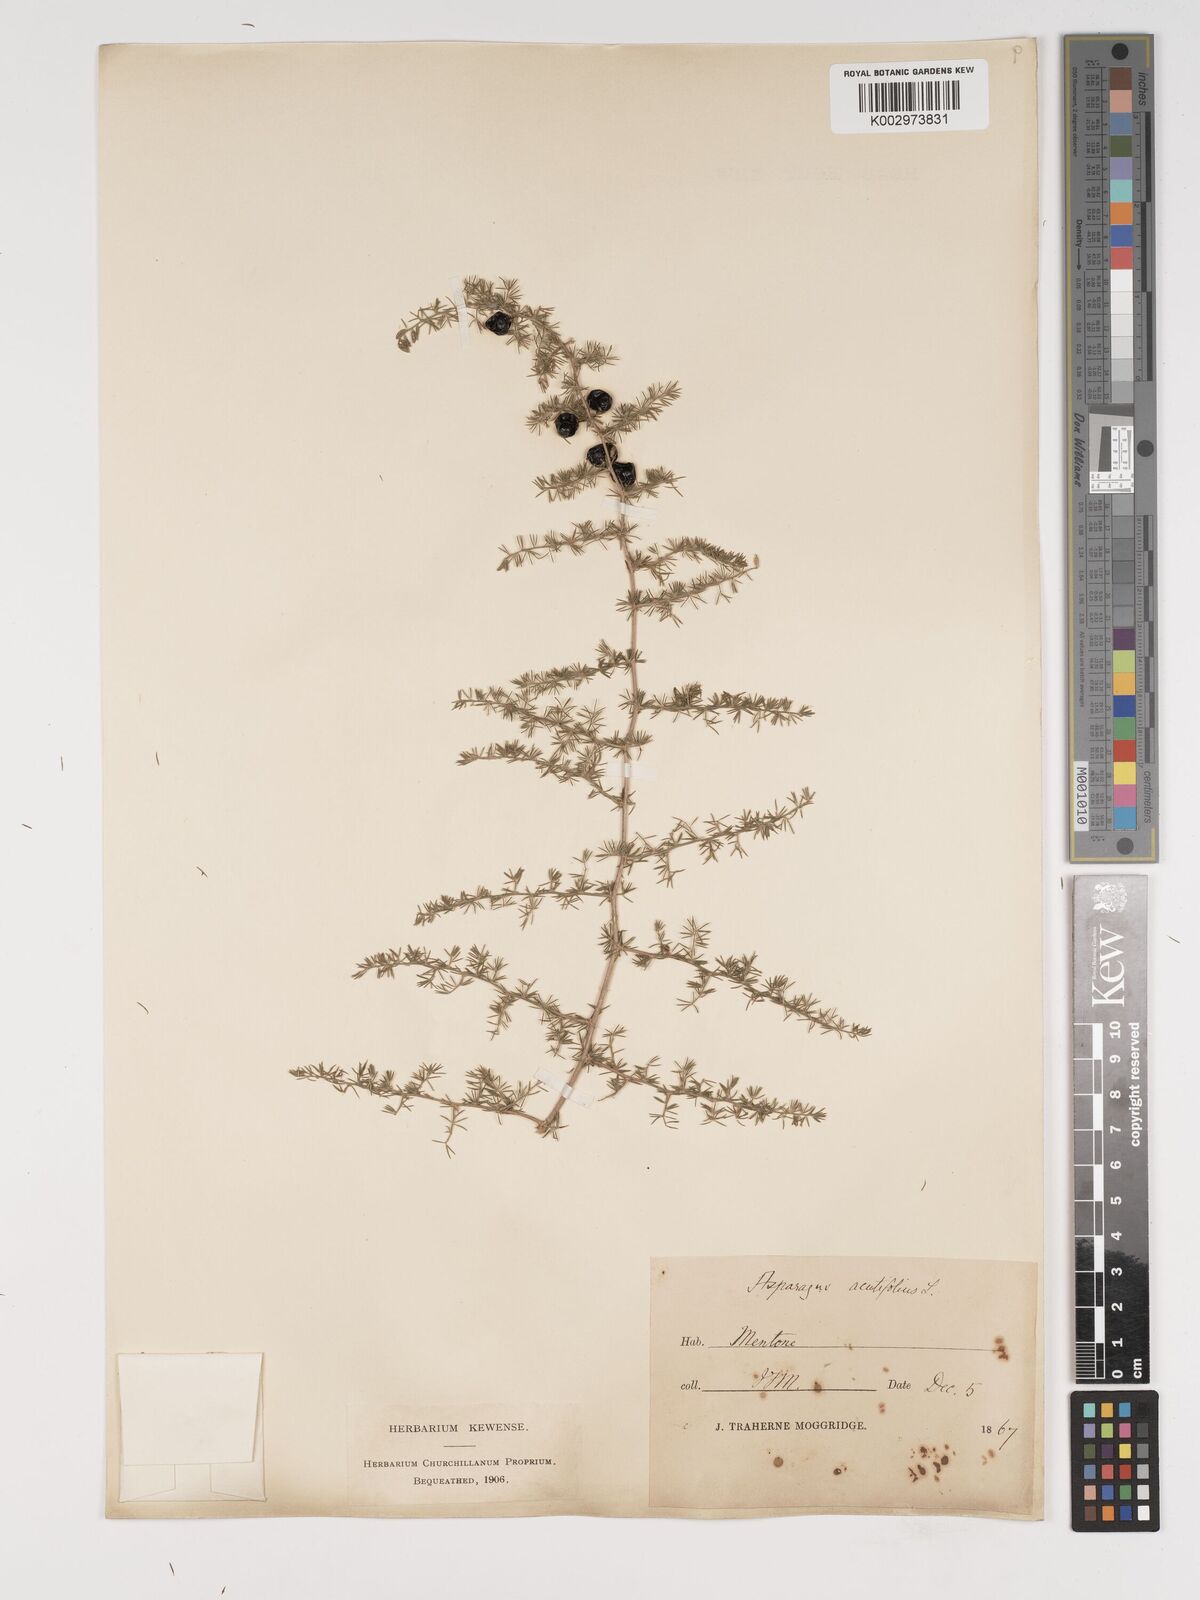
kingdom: Plantae
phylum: Tracheophyta
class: Liliopsida
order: Asparagales
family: Asparagaceae
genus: Asparagus
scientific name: Asparagus aethiopicus
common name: Sprenger's asparagus fern
